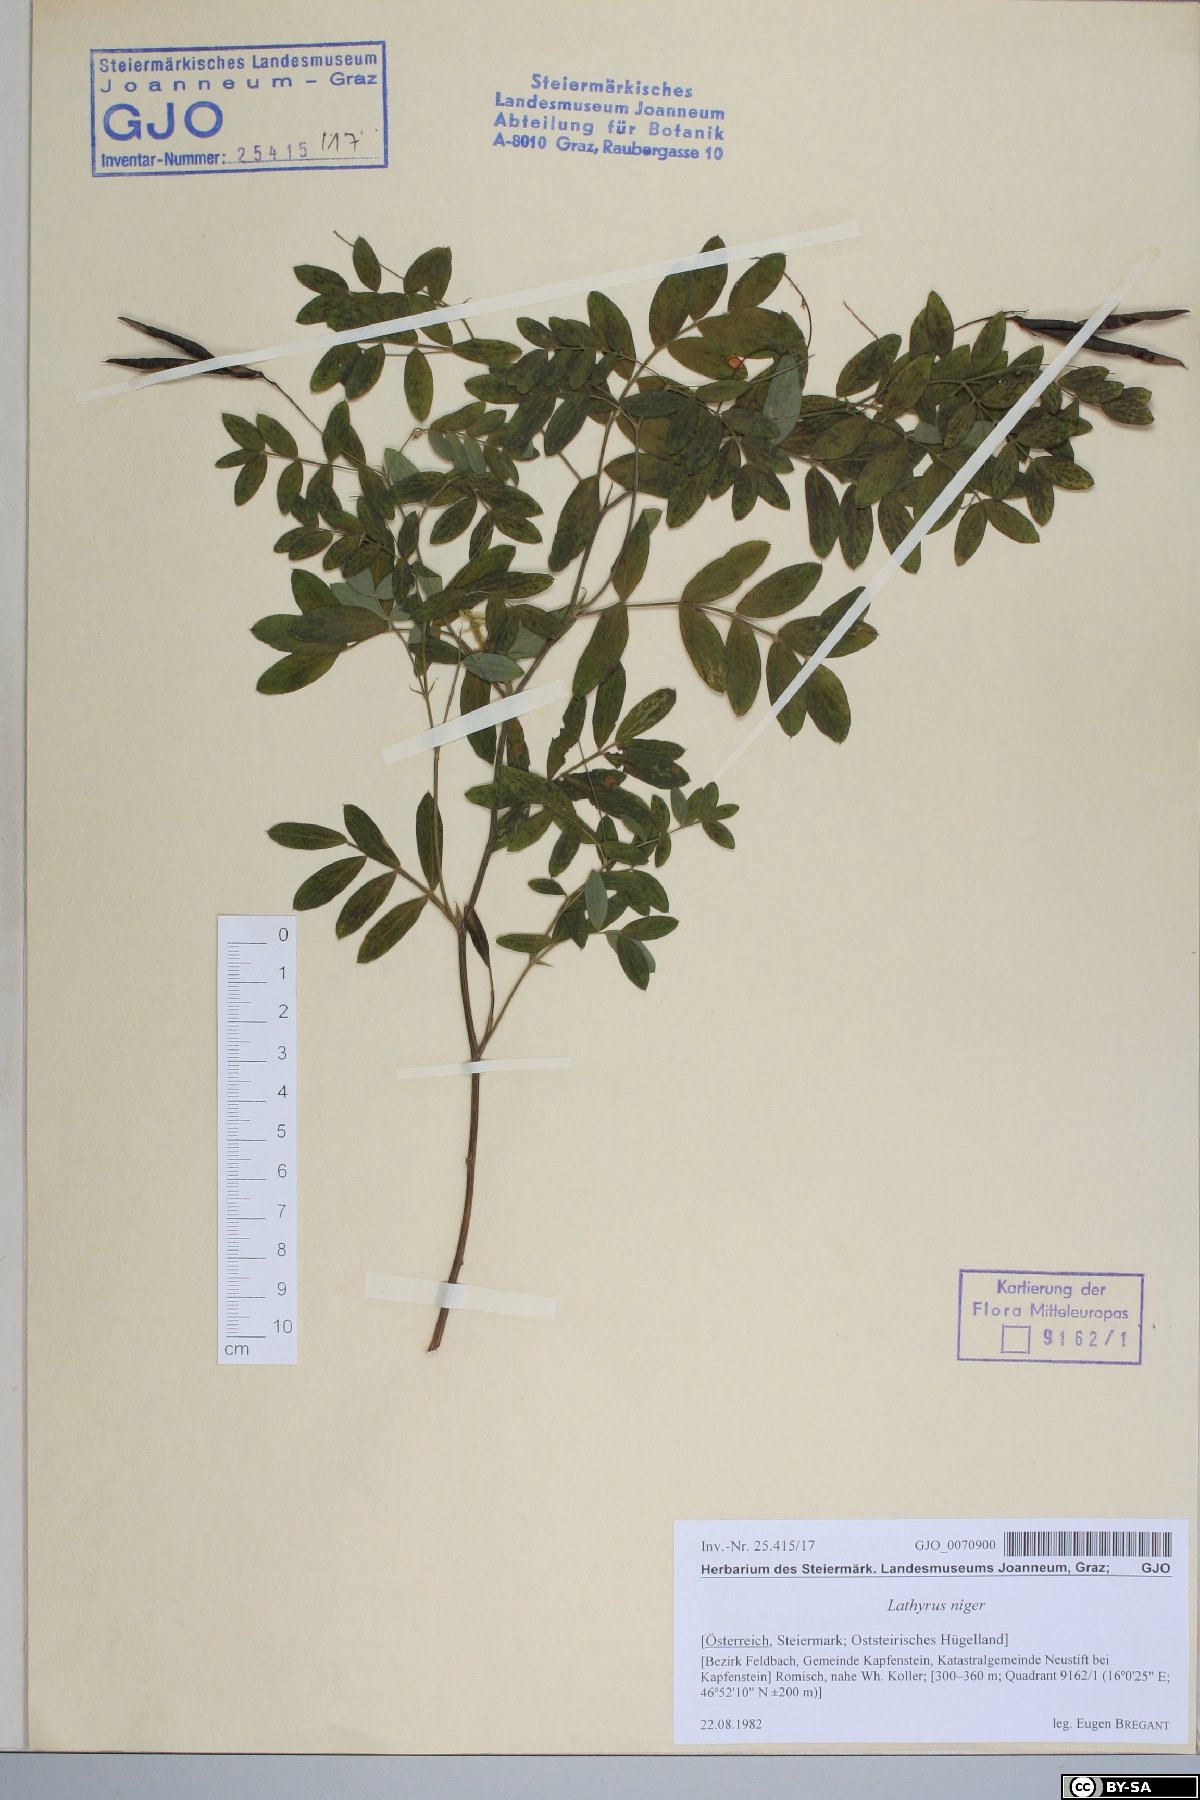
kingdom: Plantae
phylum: Tracheophyta
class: Magnoliopsida
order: Fabales
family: Fabaceae
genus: Lathyrus
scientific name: Lathyrus niger
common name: Black pea
